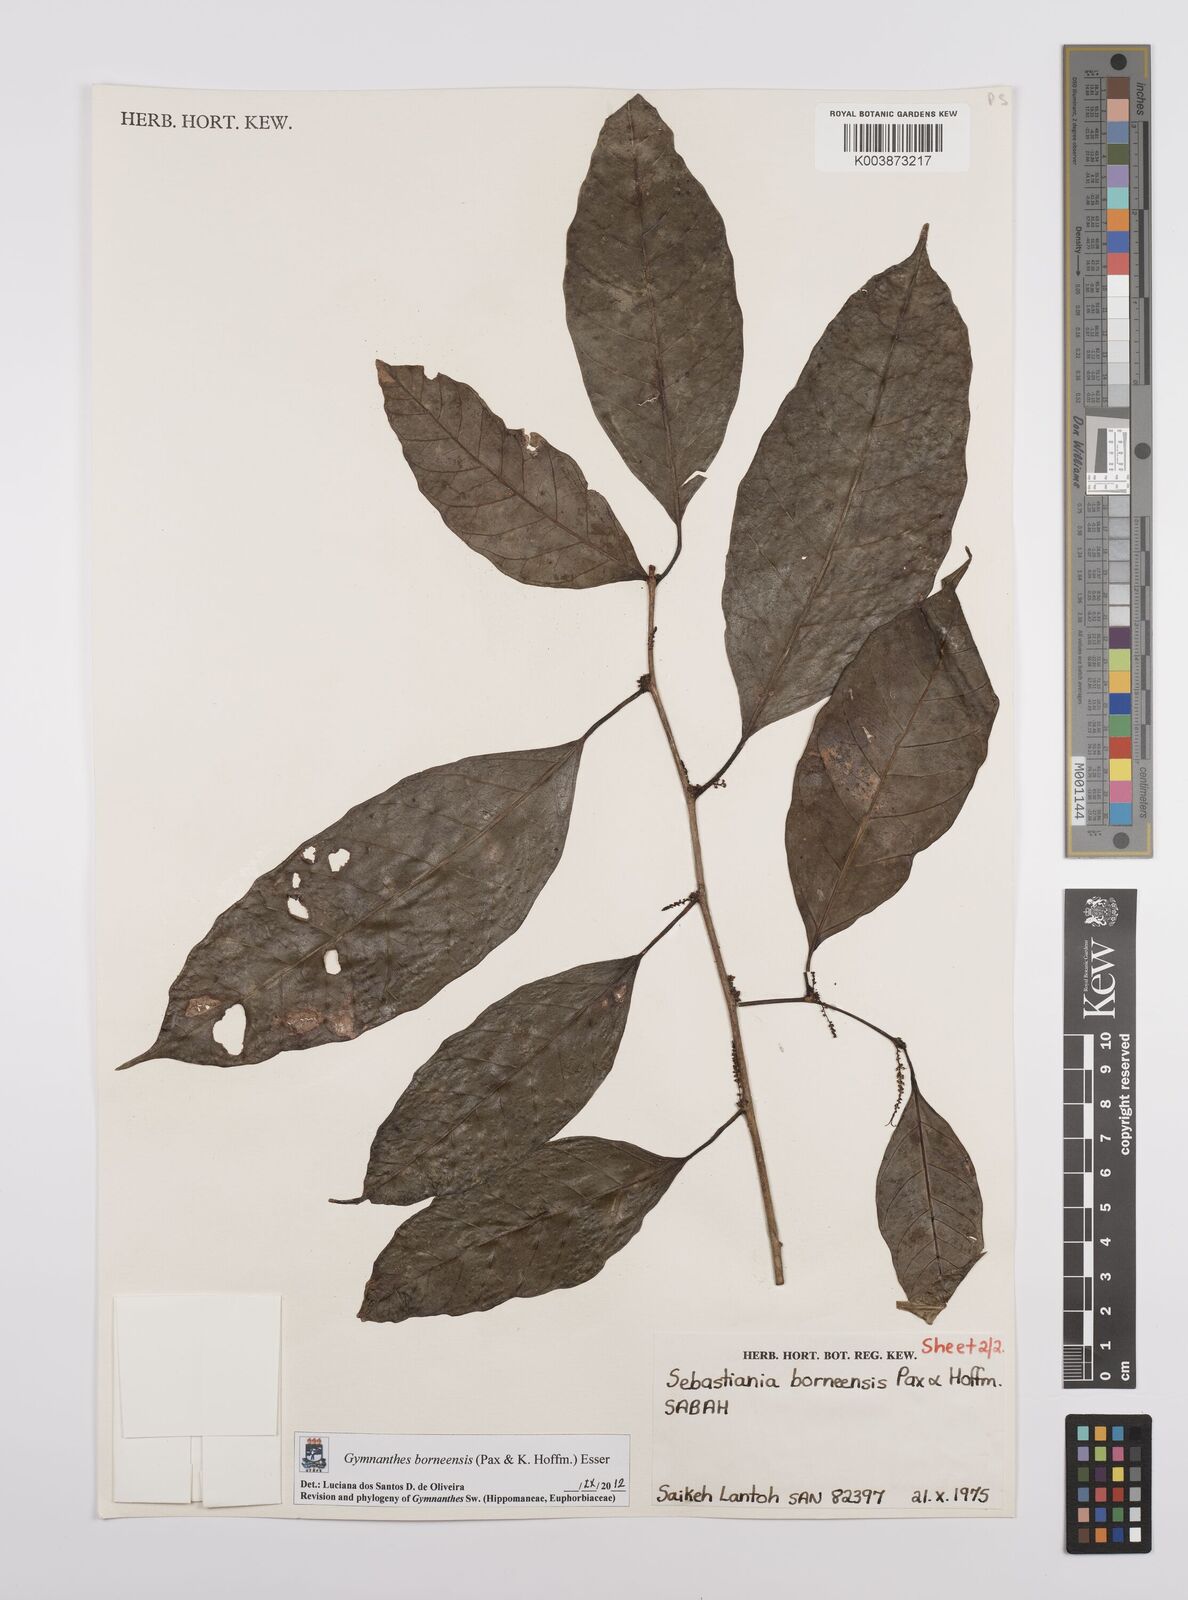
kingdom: Plantae
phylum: Tracheophyta
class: Magnoliopsida
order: Malpighiales
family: Euphorbiaceae
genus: Gymnanthes
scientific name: Gymnanthes borneensis
